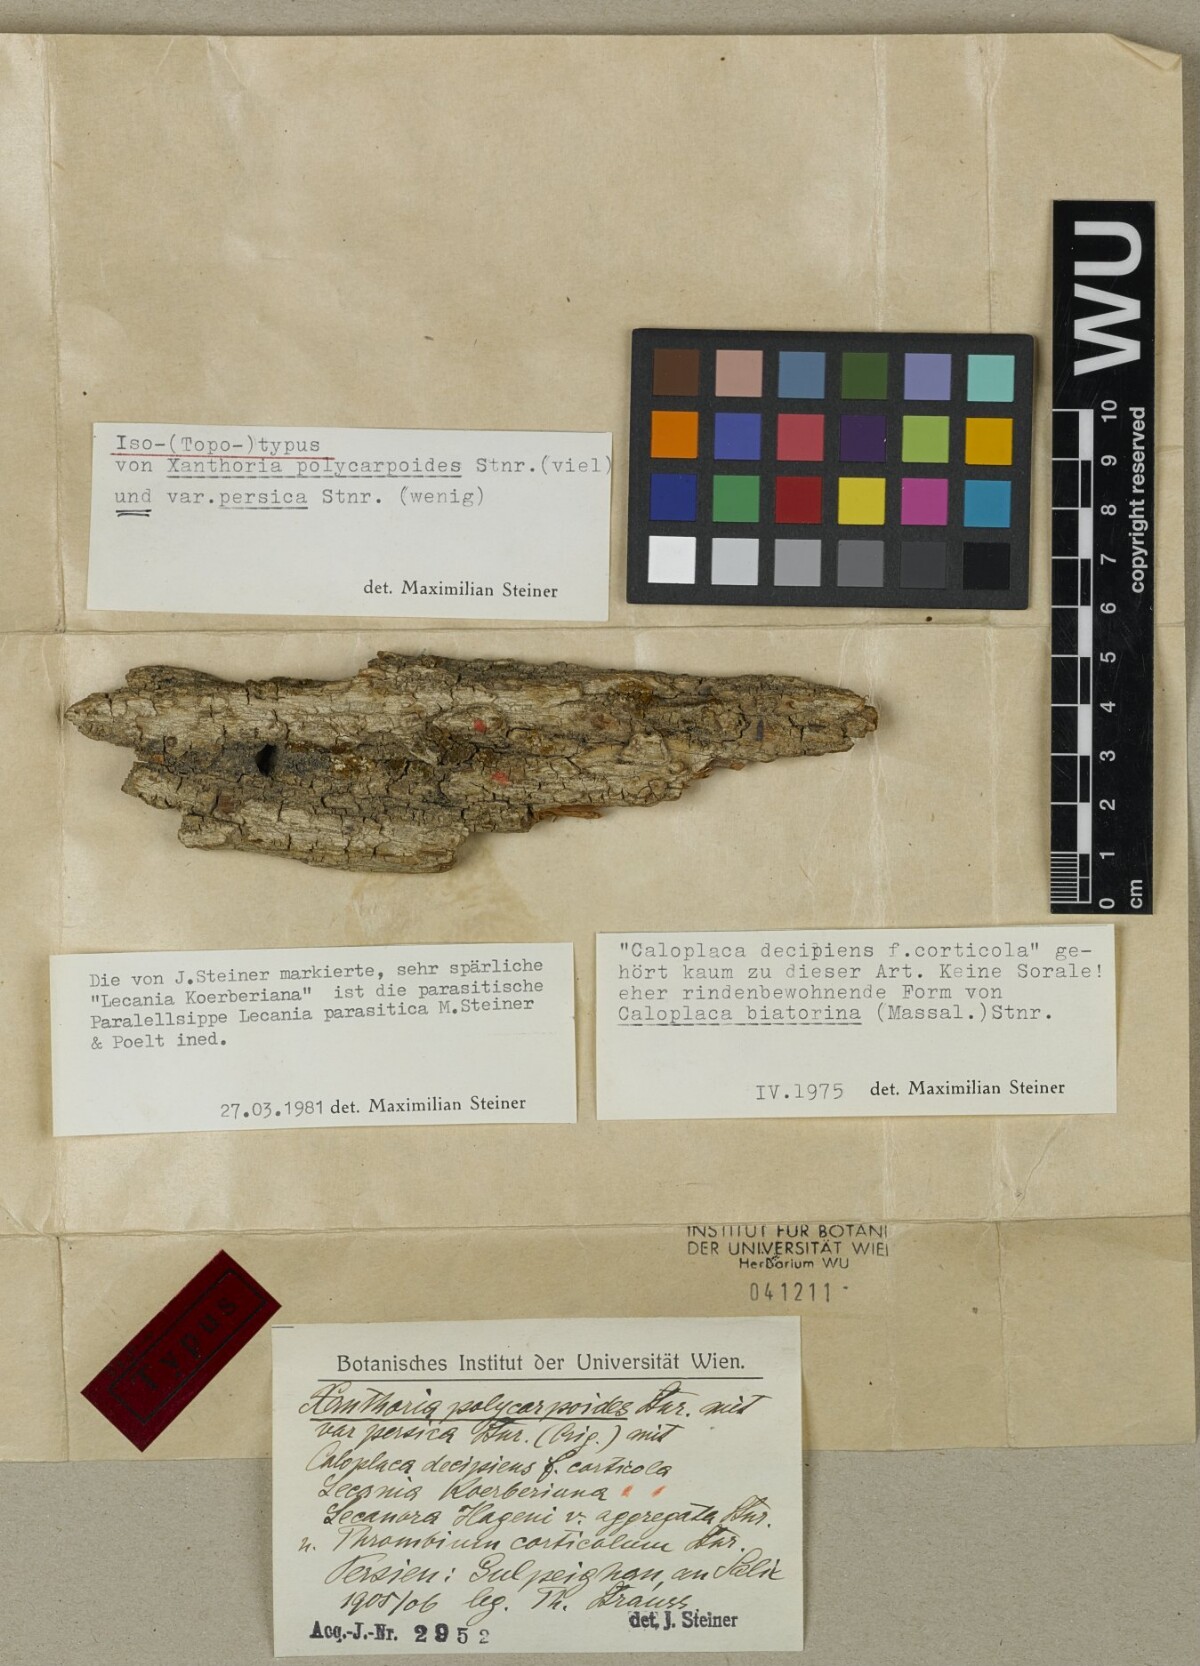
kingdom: Fungi
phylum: Ascomycota
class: Lecanoromycetes
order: Teloschistales
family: Teloschistaceae
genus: Lazarenkoella
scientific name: Lazarenkoella polycarpoides
